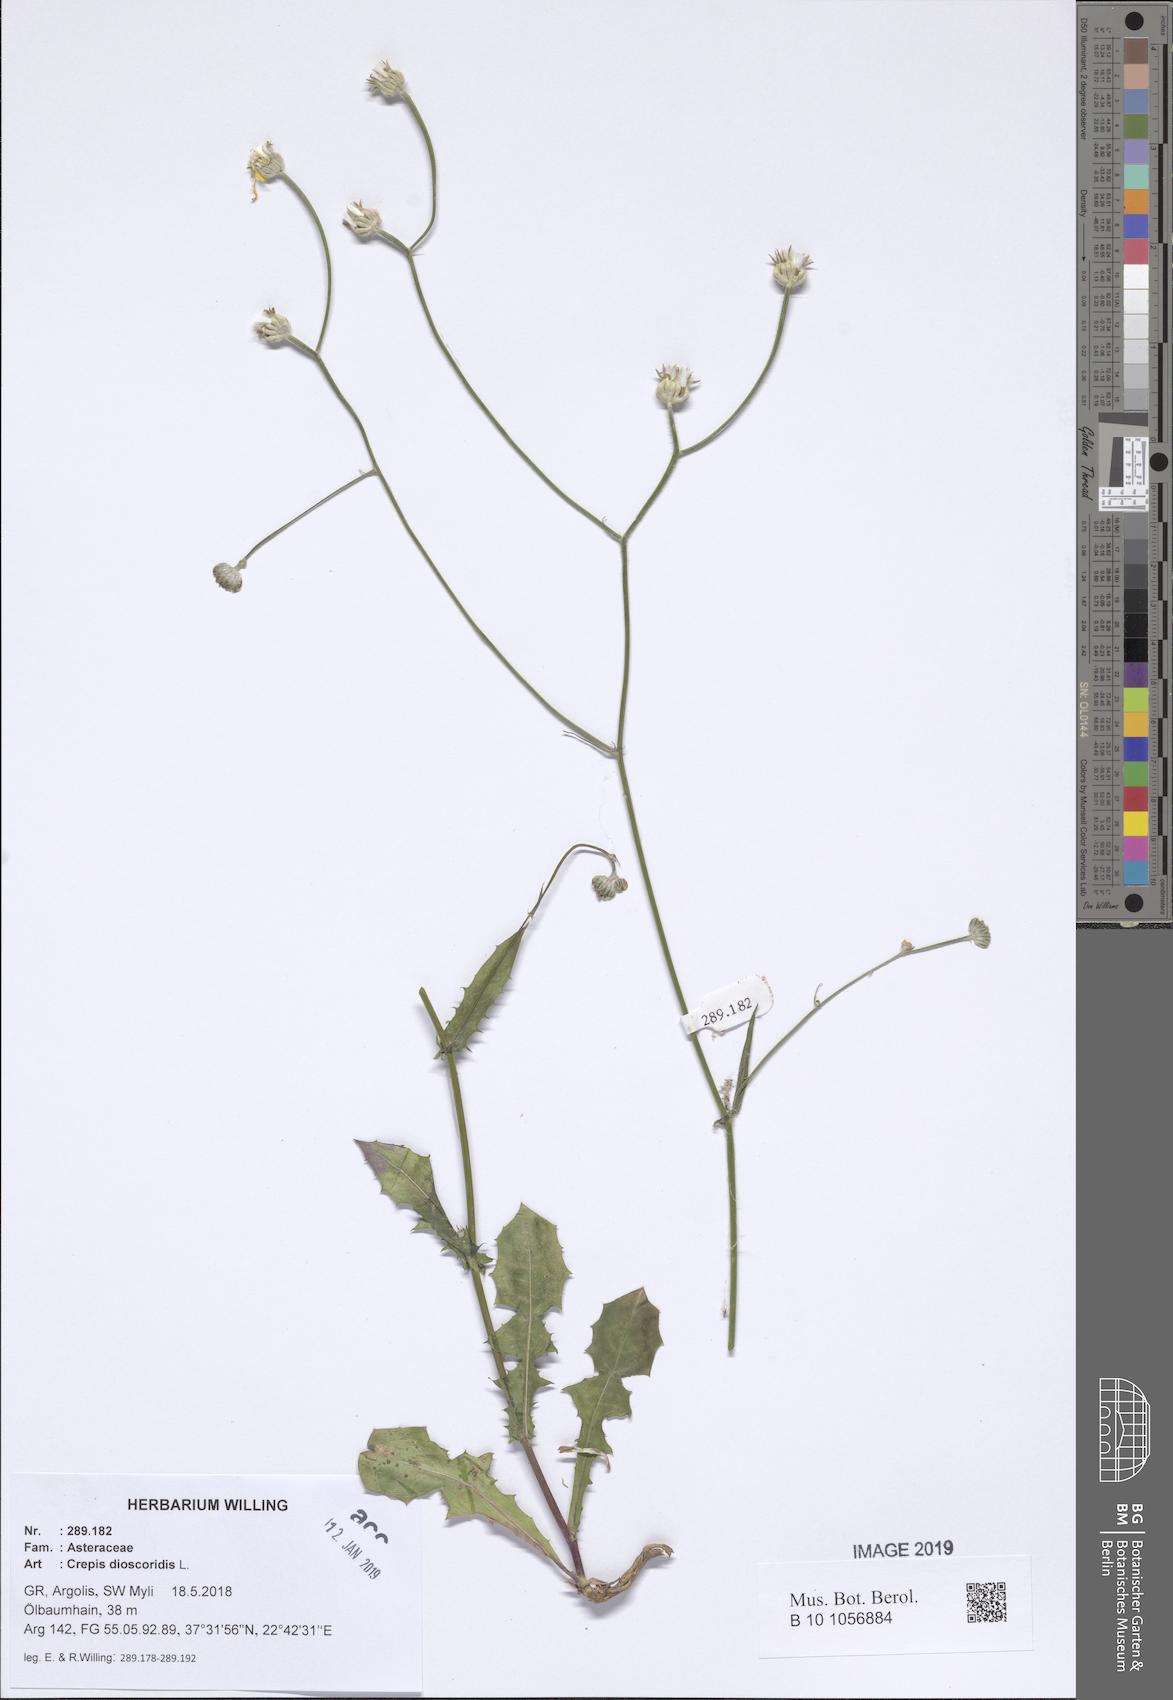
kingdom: Plantae
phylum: Tracheophyta
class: Magnoliopsida
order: Asterales
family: Asteraceae
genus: Crepis
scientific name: Crepis dioscoridis
